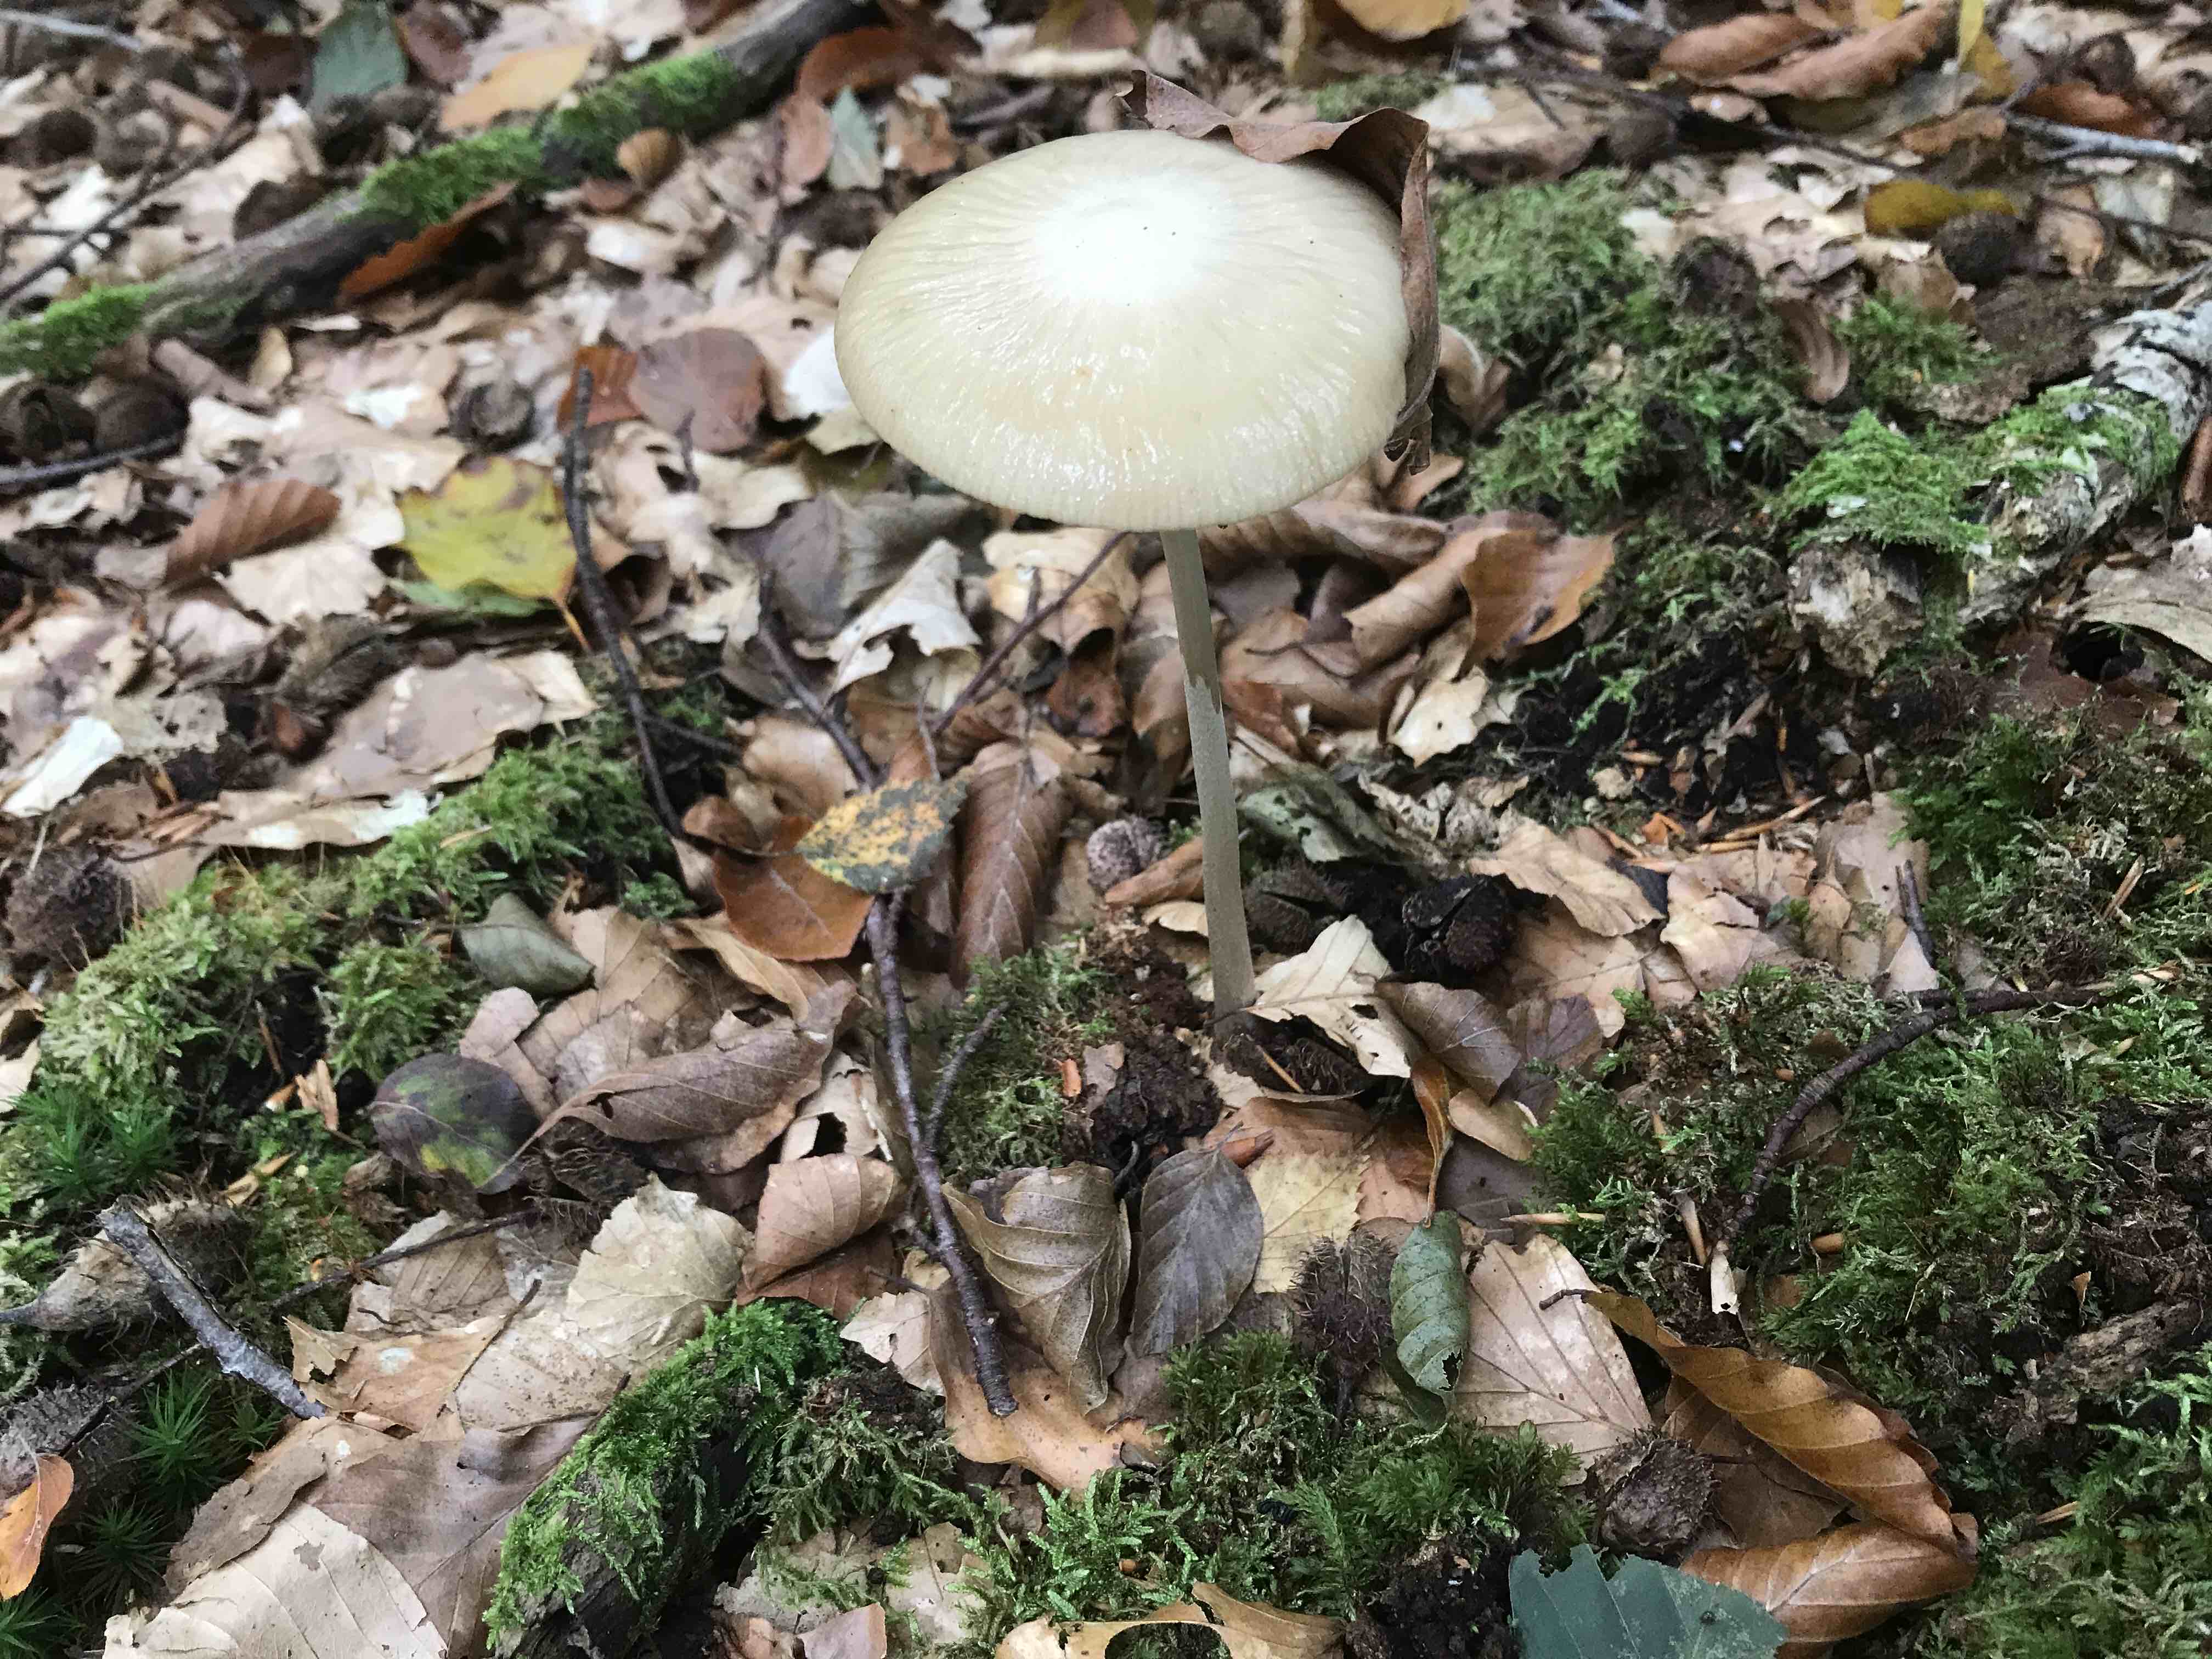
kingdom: Fungi
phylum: Basidiomycota
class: Agaricomycetes
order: Agaricales
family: Physalacriaceae
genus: Hymenopellis
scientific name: Hymenopellis radicata
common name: almindelig pælerodshat
